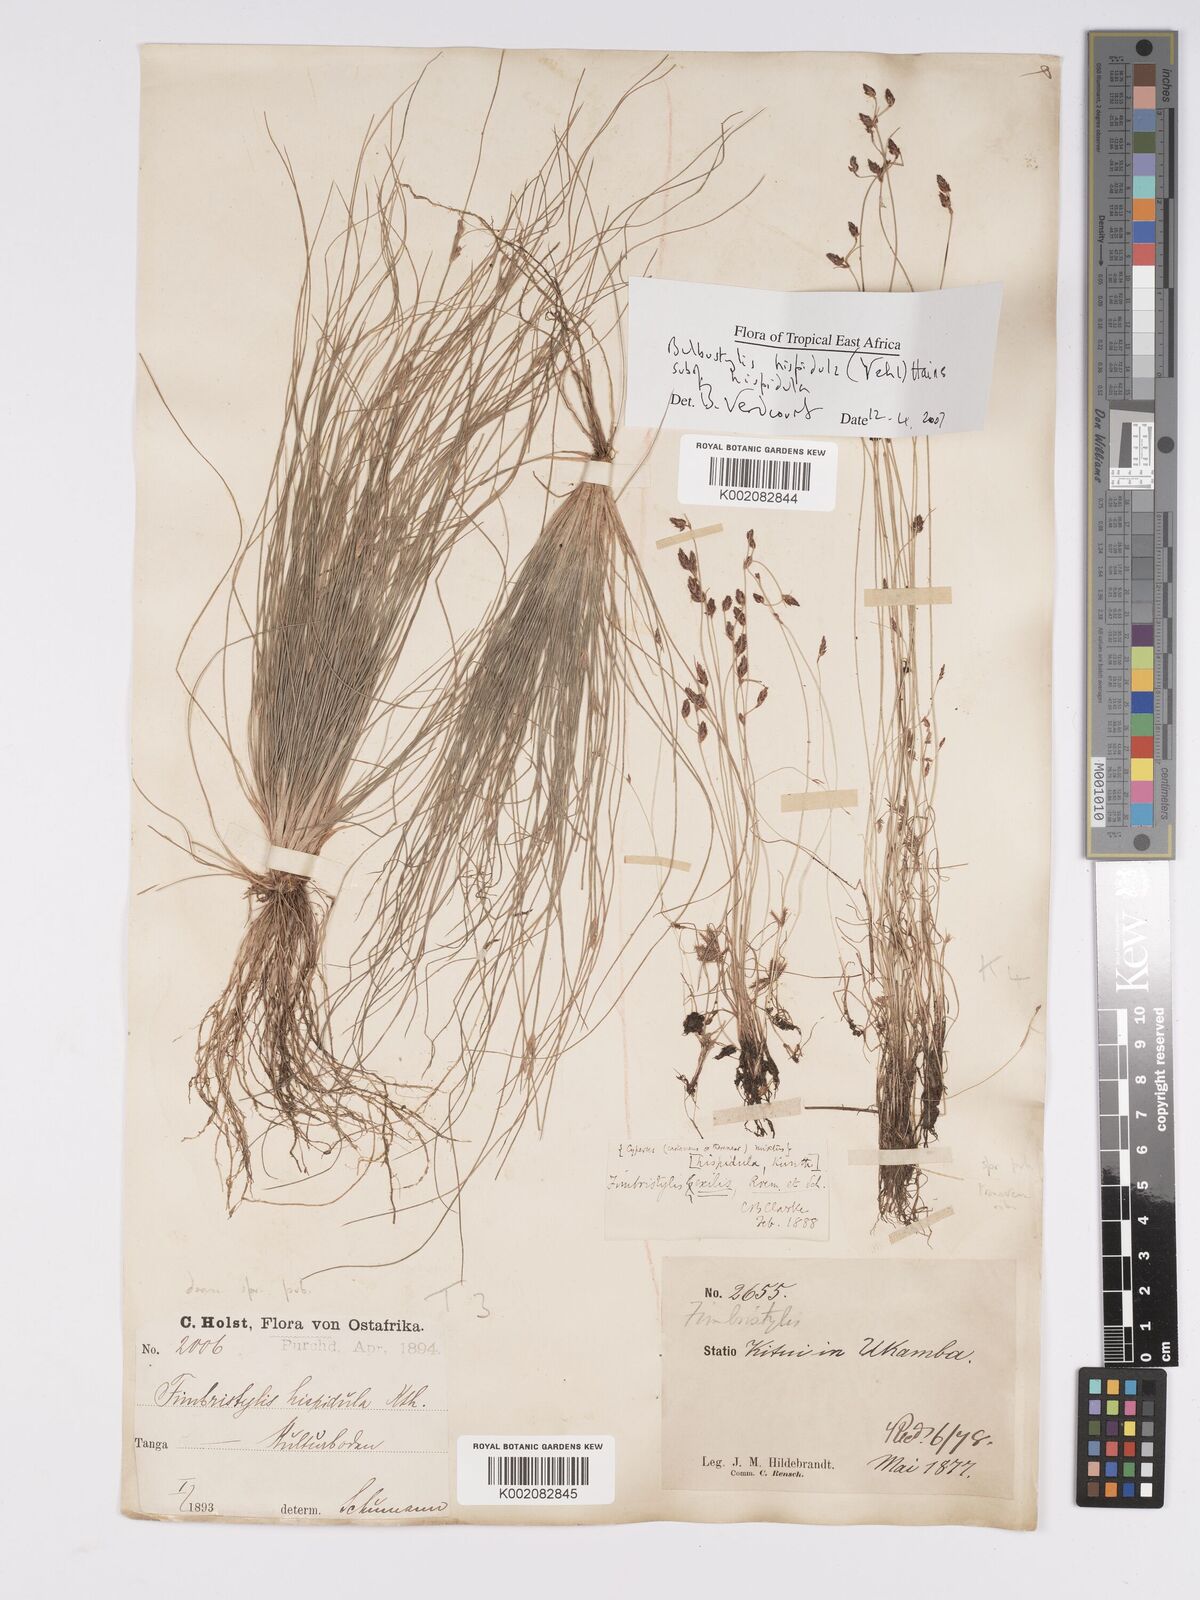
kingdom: Plantae
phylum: Tracheophyta
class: Liliopsida
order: Poales
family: Cyperaceae
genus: Bulbostylis
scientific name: Bulbostylis hispidula
